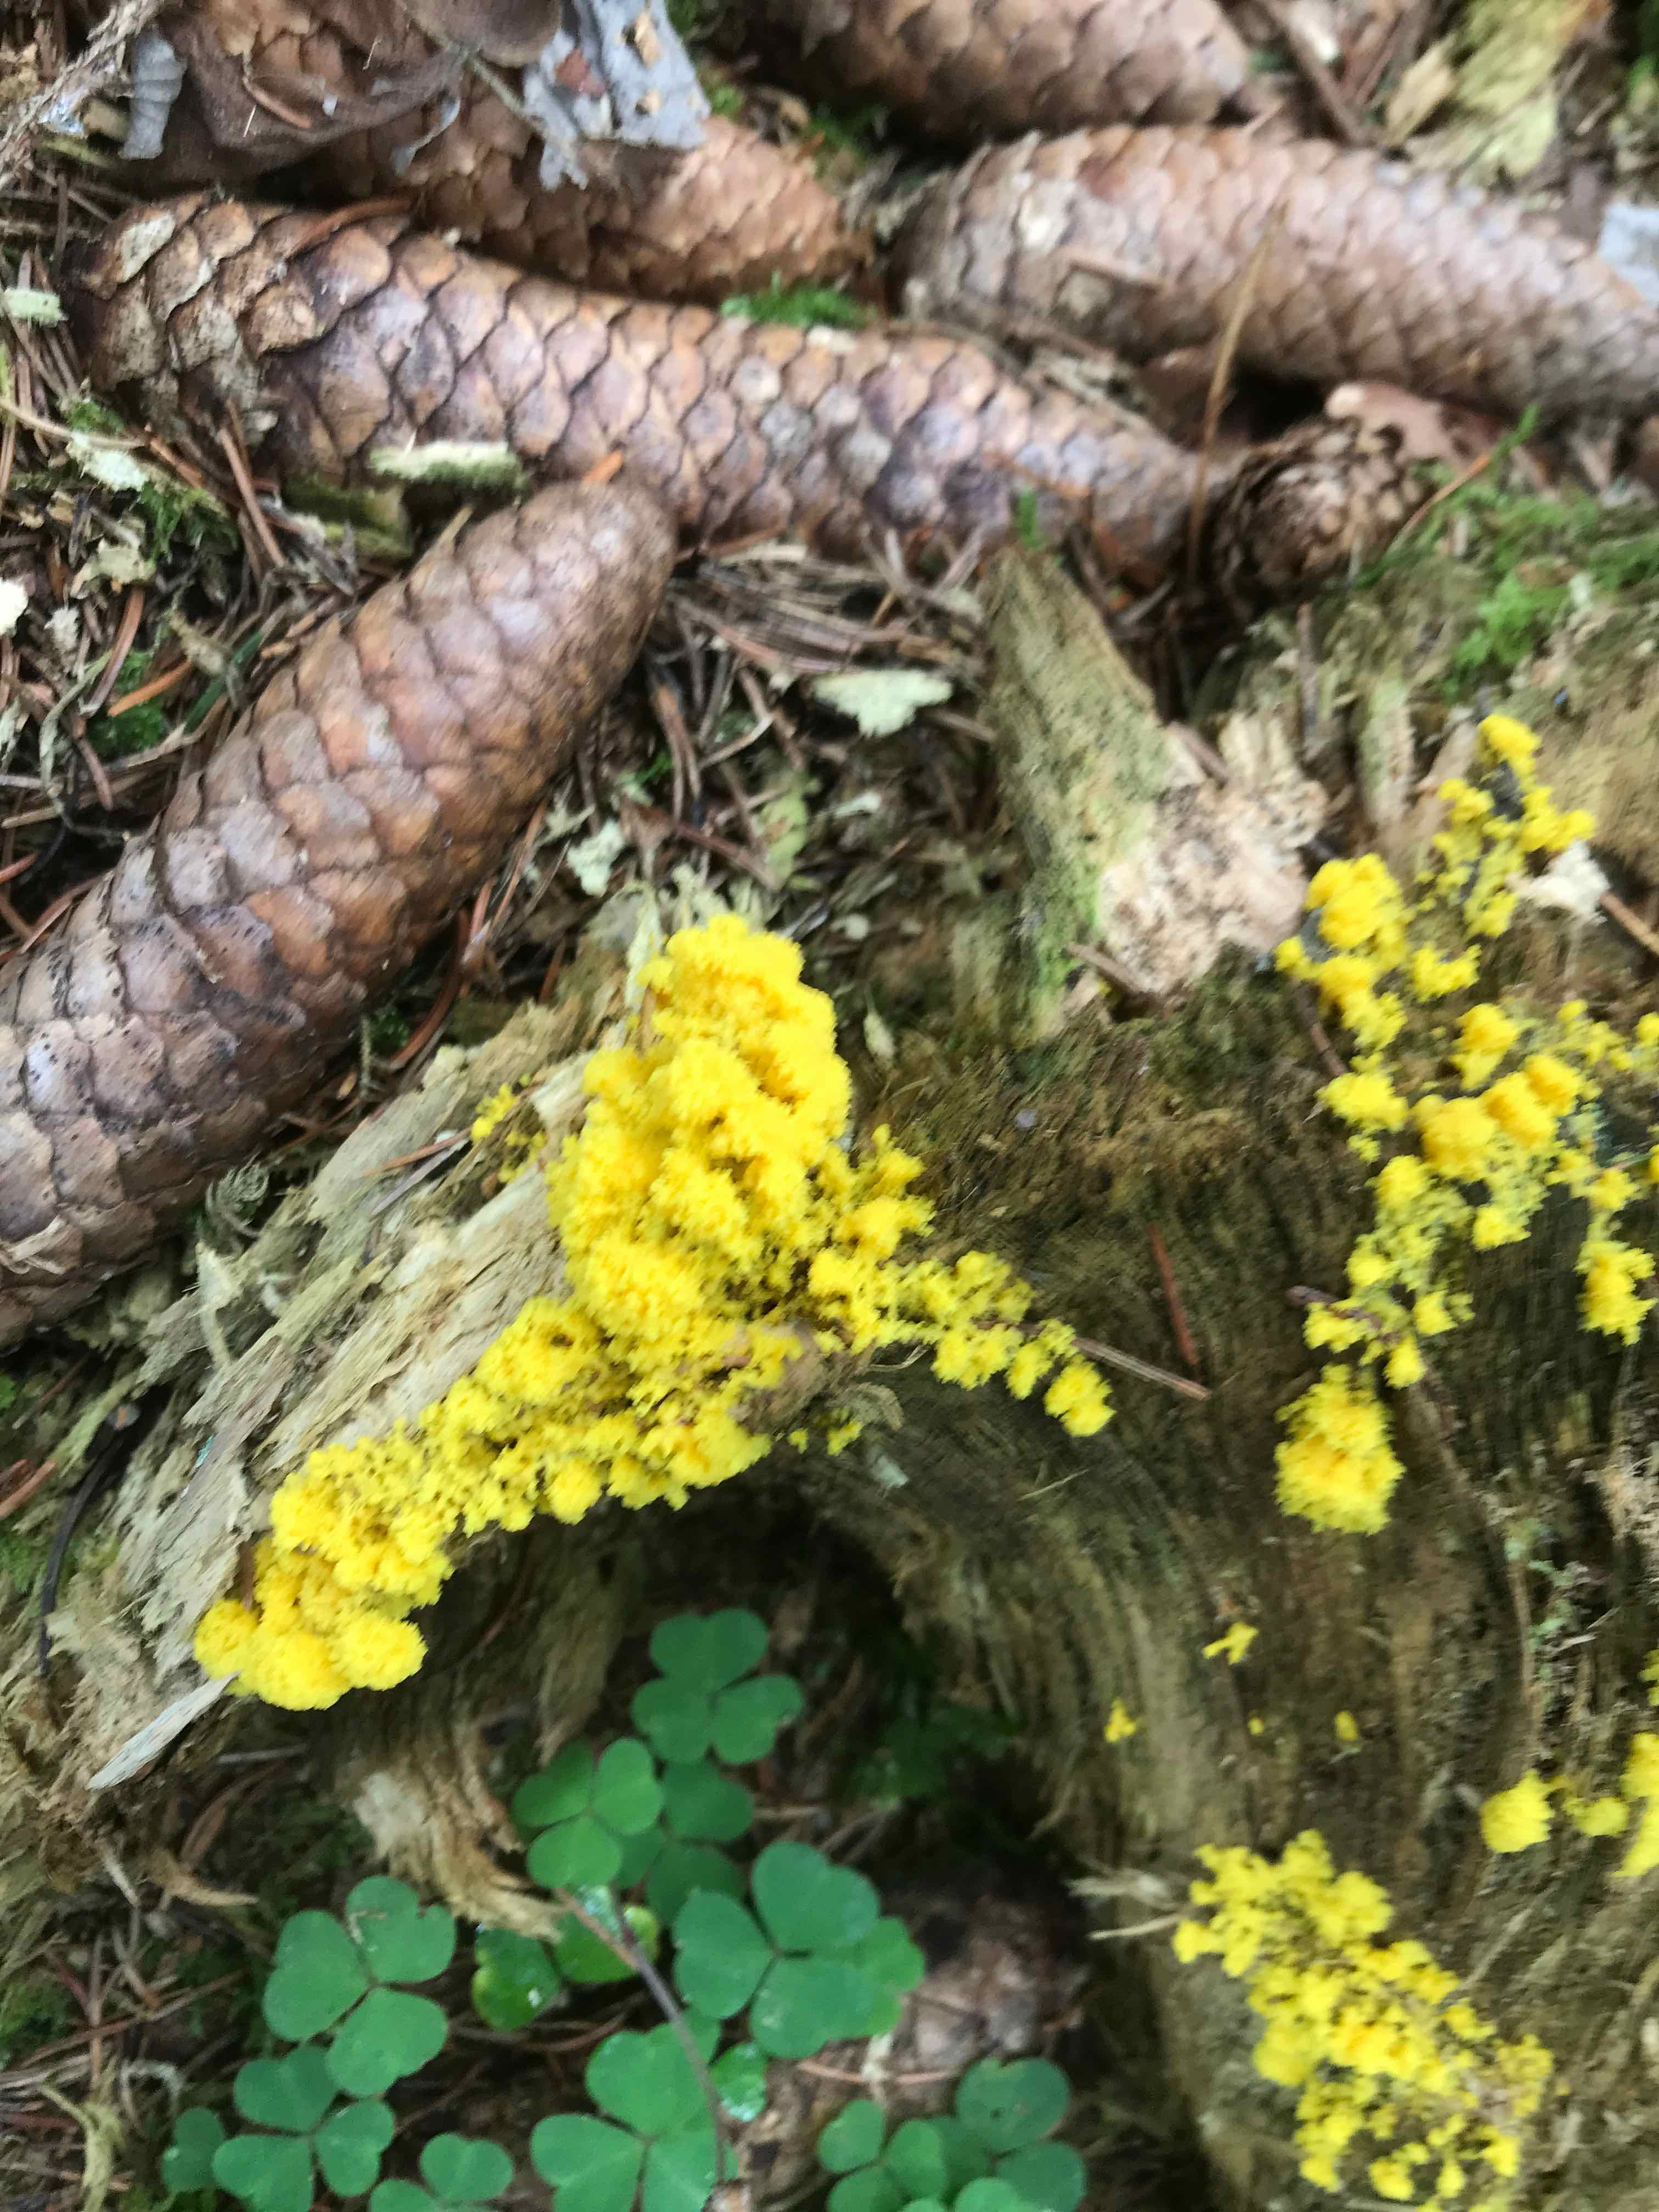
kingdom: Protozoa
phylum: Mycetozoa
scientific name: Mycetozoa
